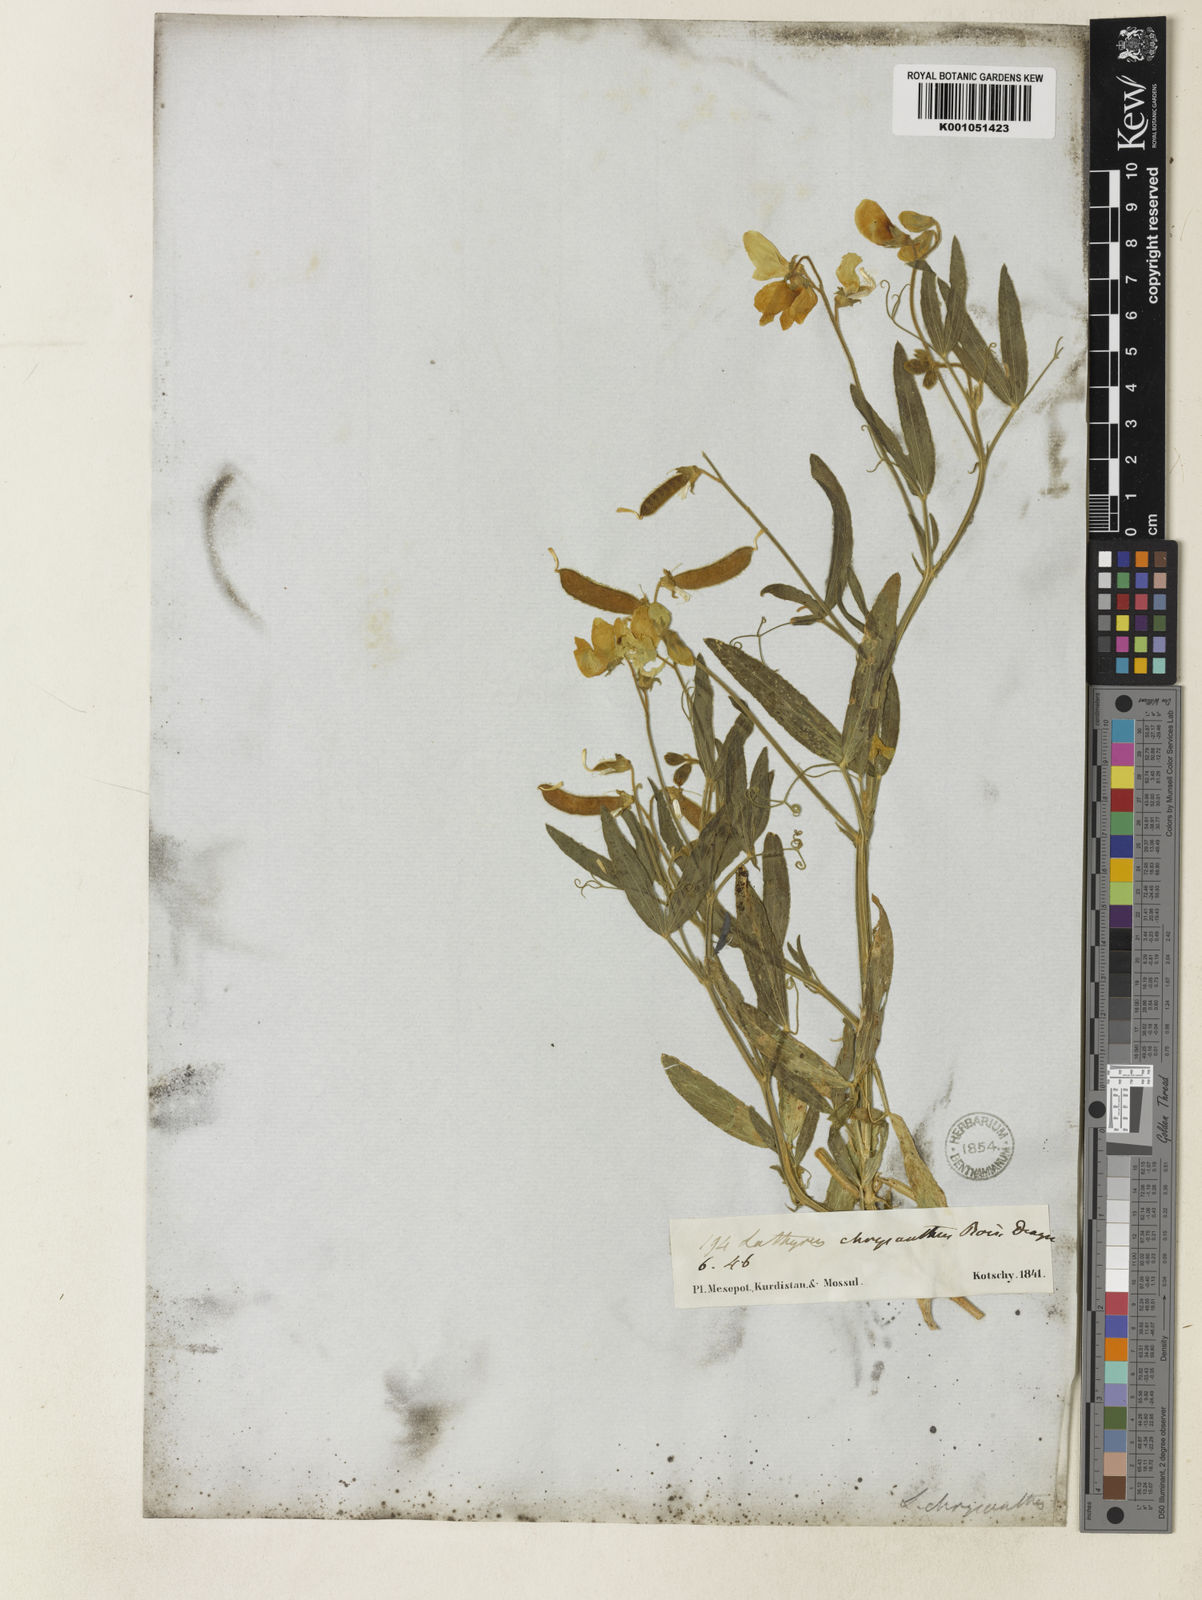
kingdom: Plantae
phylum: Tracheophyta
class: Magnoliopsida
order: Fabales
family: Fabaceae
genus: Lathyrus
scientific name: Lathyrus chrysanthus
